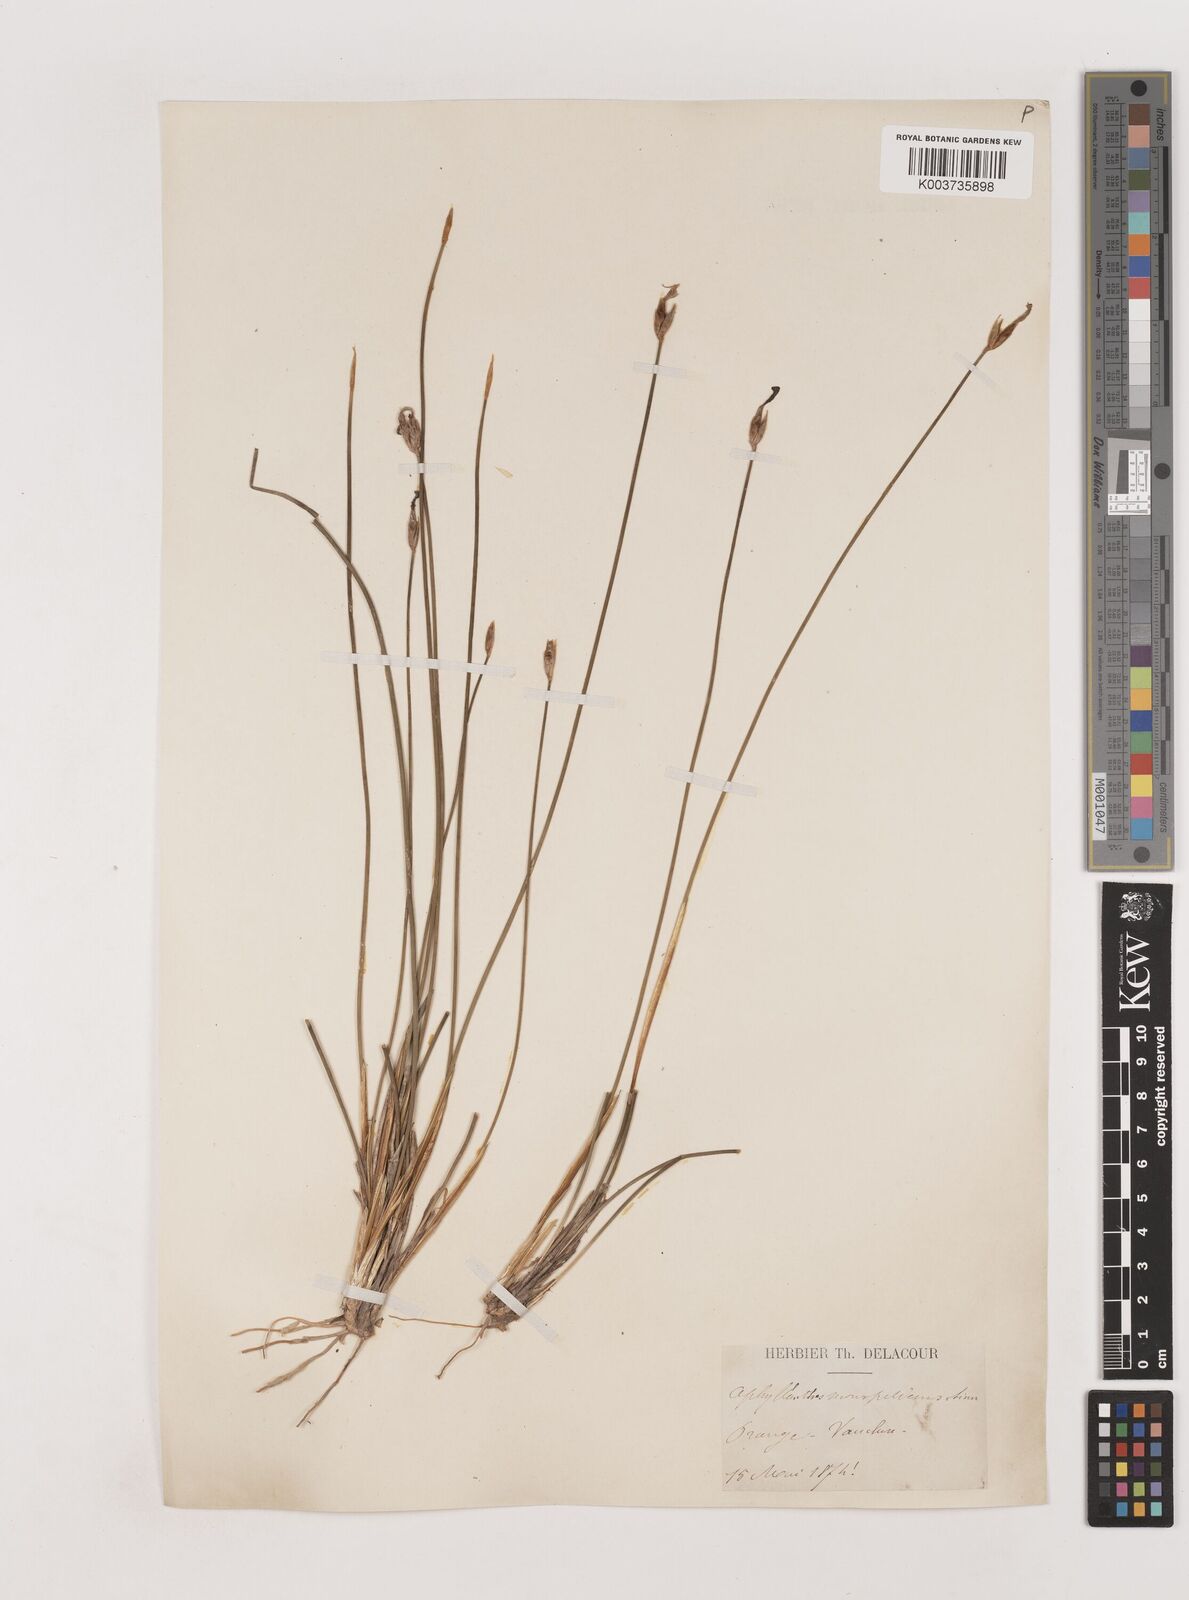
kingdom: Plantae
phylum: Tracheophyta
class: Liliopsida
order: Asparagales
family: Asparagaceae
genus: Aphyllanthes
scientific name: Aphyllanthes monspeliensis
